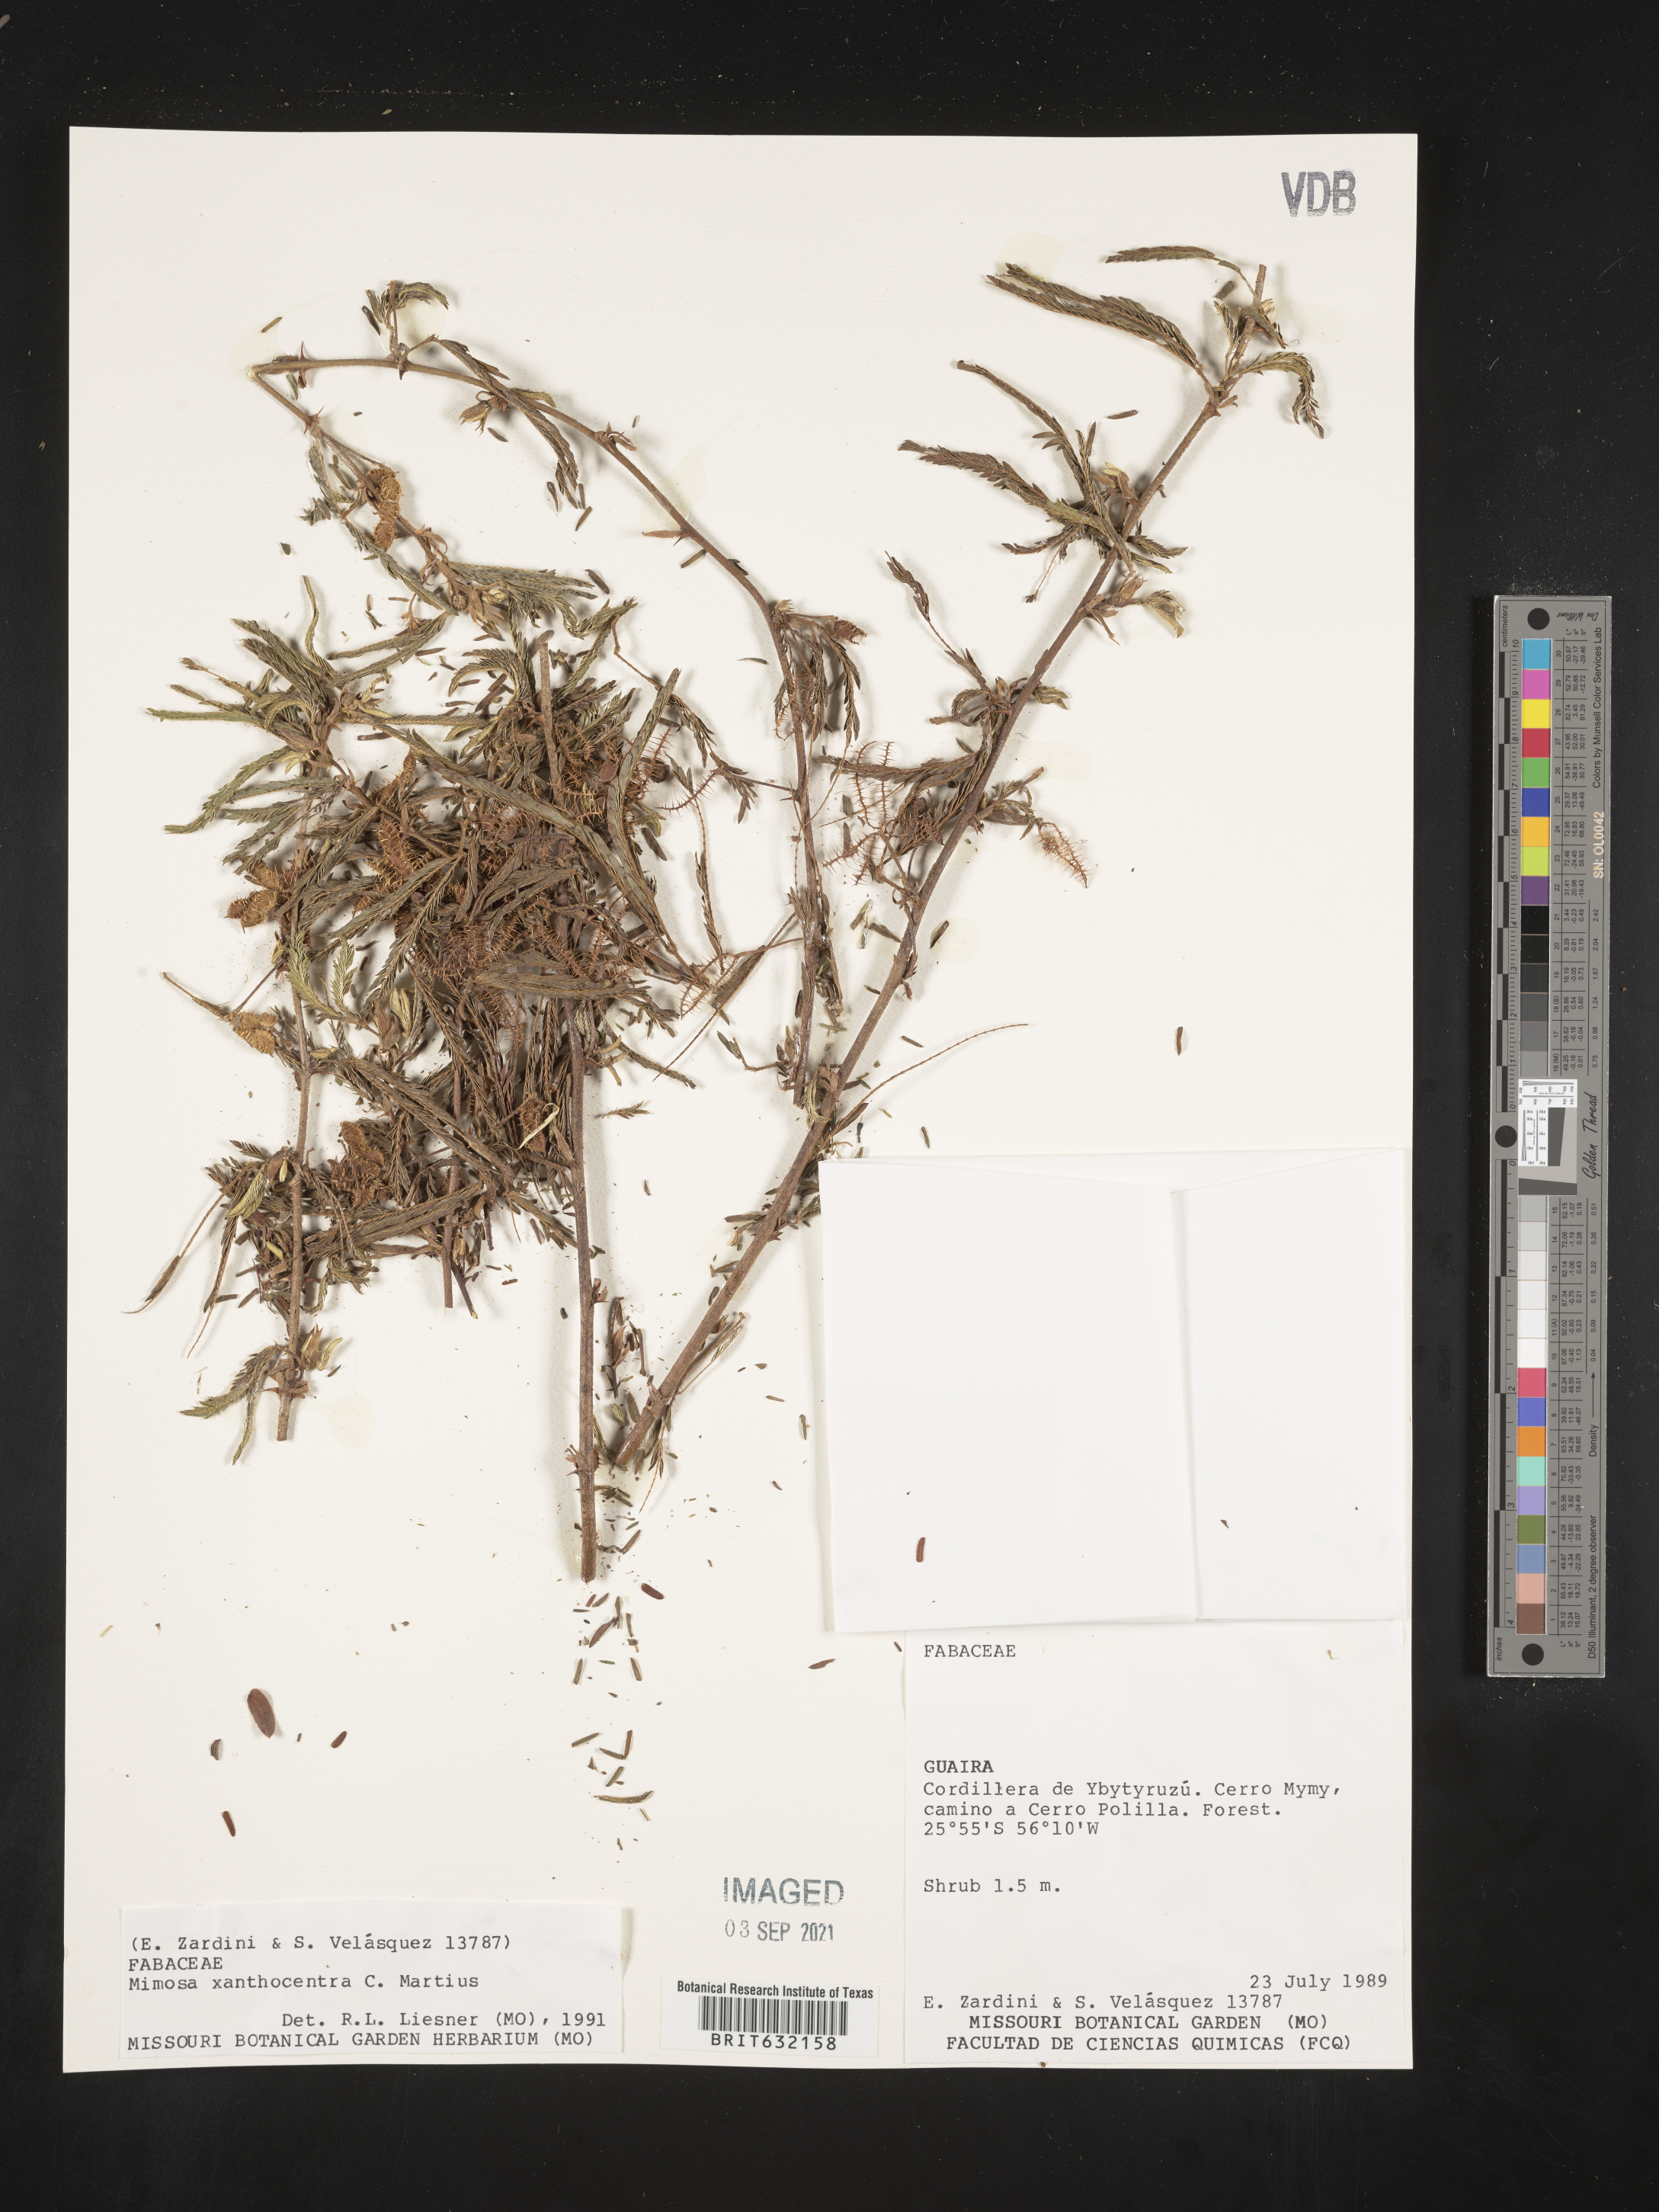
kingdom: Plantae
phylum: Tracheophyta
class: Magnoliopsida
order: Fabales
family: Fabaceae
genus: Mimosa
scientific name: Mimosa
